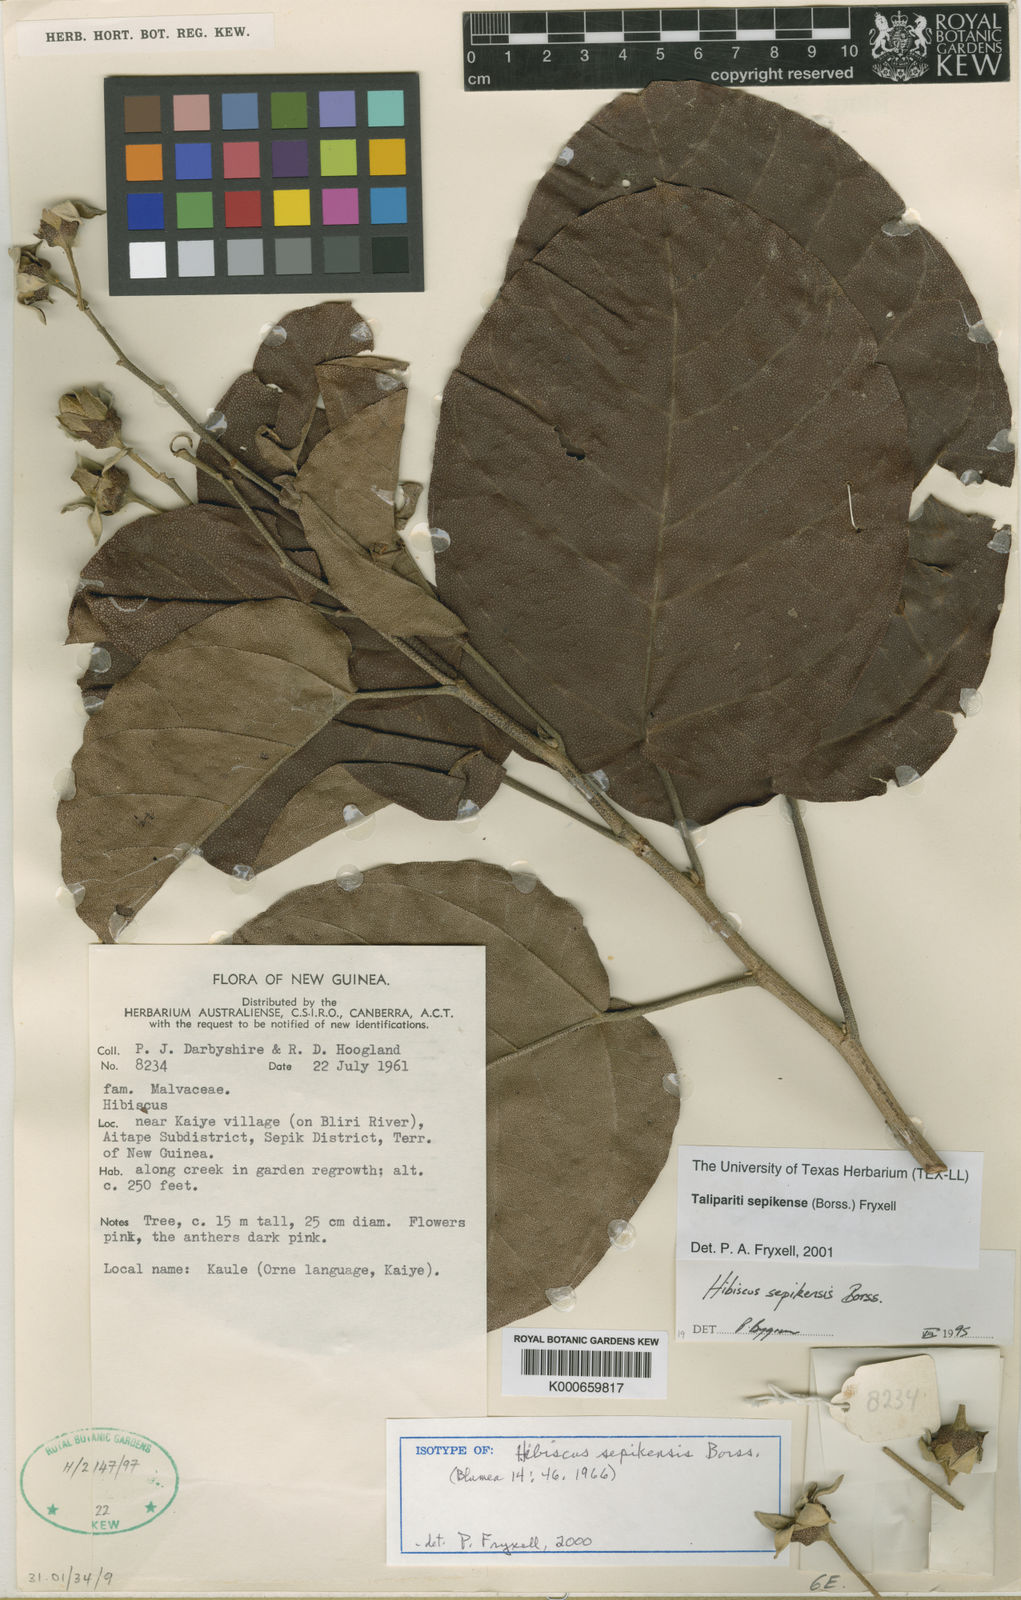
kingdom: Plantae
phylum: Tracheophyta
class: Magnoliopsida
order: Malvales
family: Malvaceae
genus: Talipariti
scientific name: Talipariti sepikense
